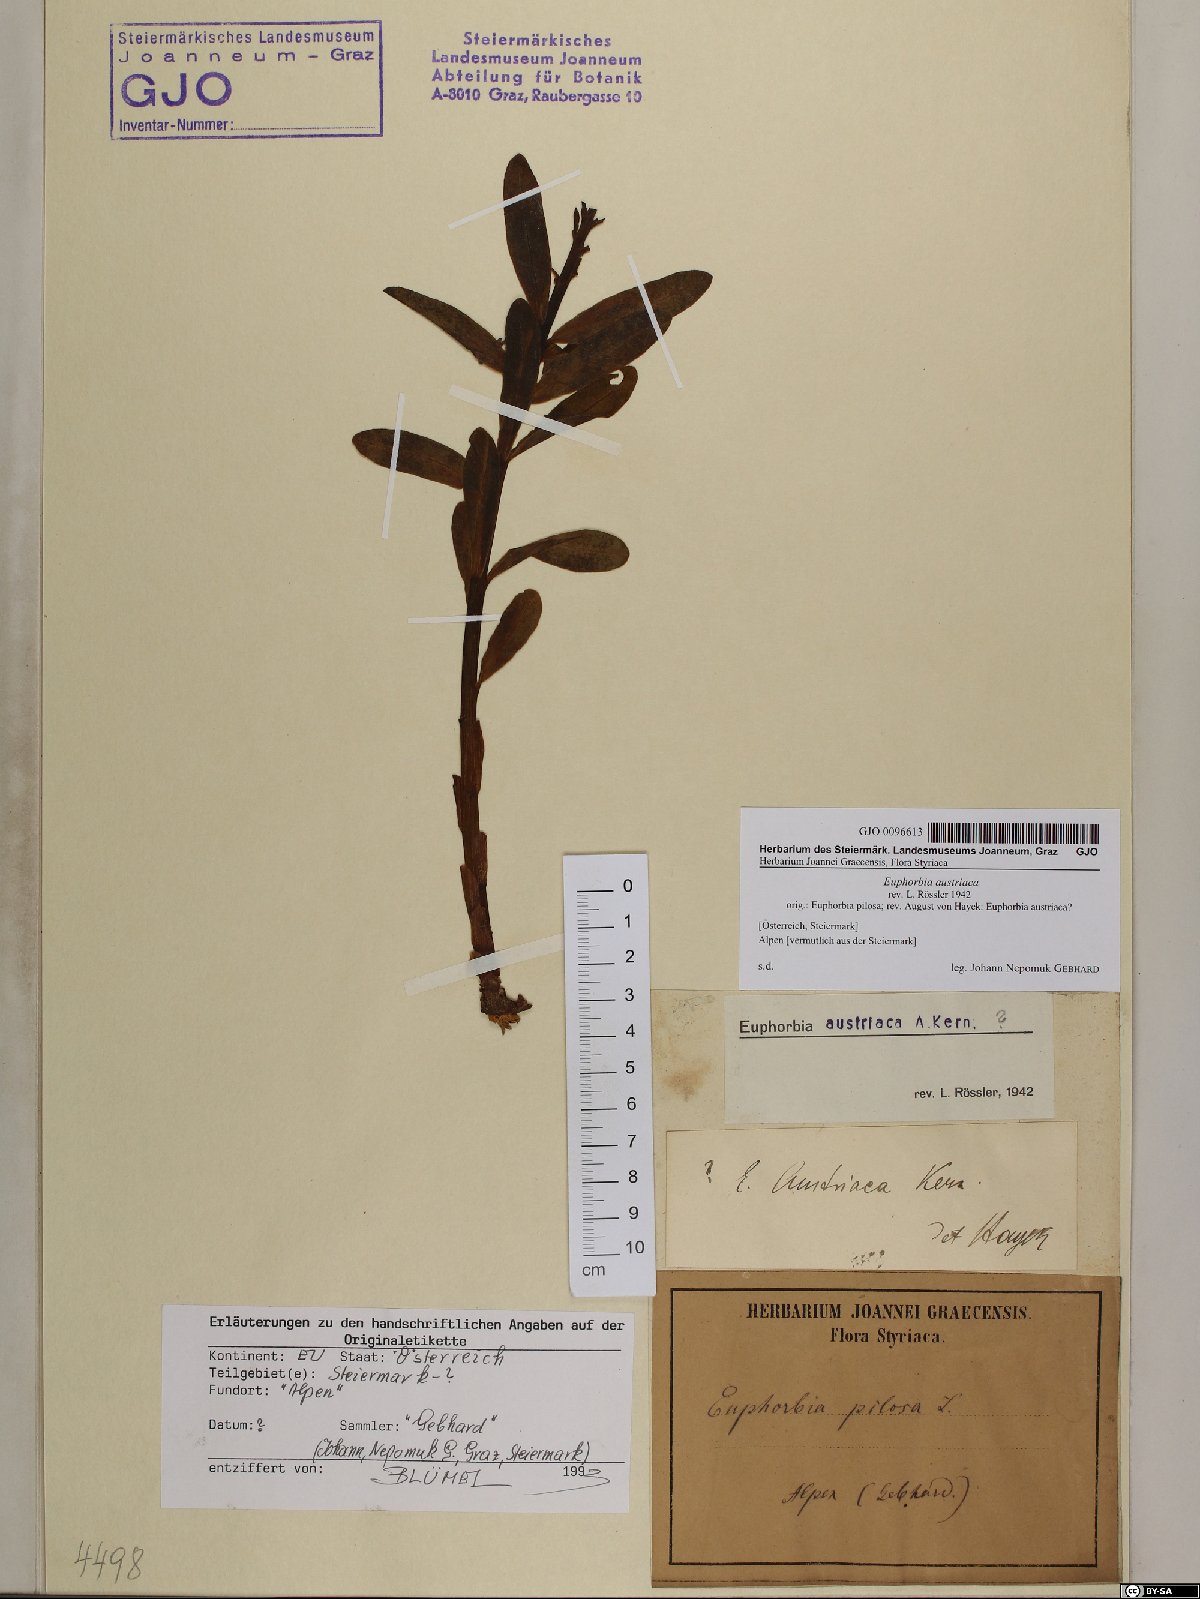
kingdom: Plantae
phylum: Tracheophyta
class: Magnoliopsida
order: Malpighiales
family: Euphorbiaceae
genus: Euphorbia
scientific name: Euphorbia austriaca
